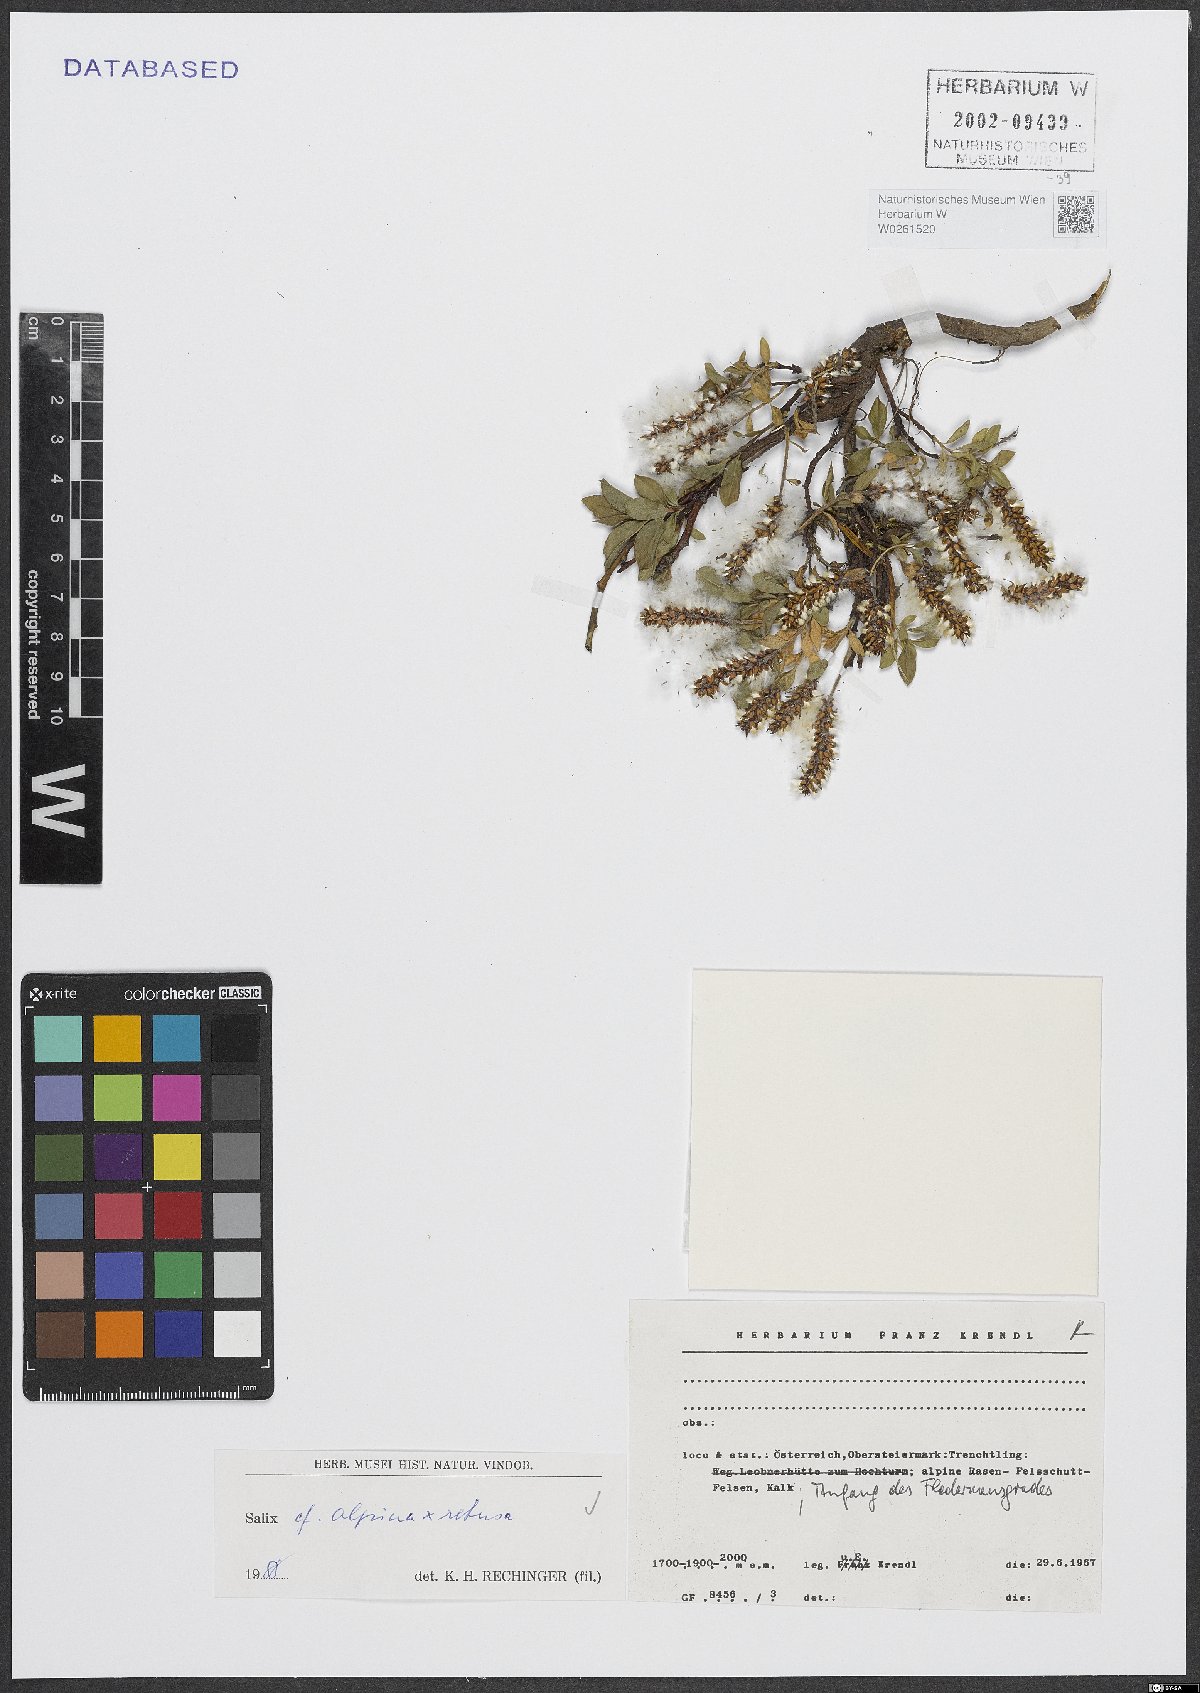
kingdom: Plantae
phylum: Tracheophyta
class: Magnoliopsida
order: Malpighiales
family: Salicaceae
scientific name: Salicaceae
